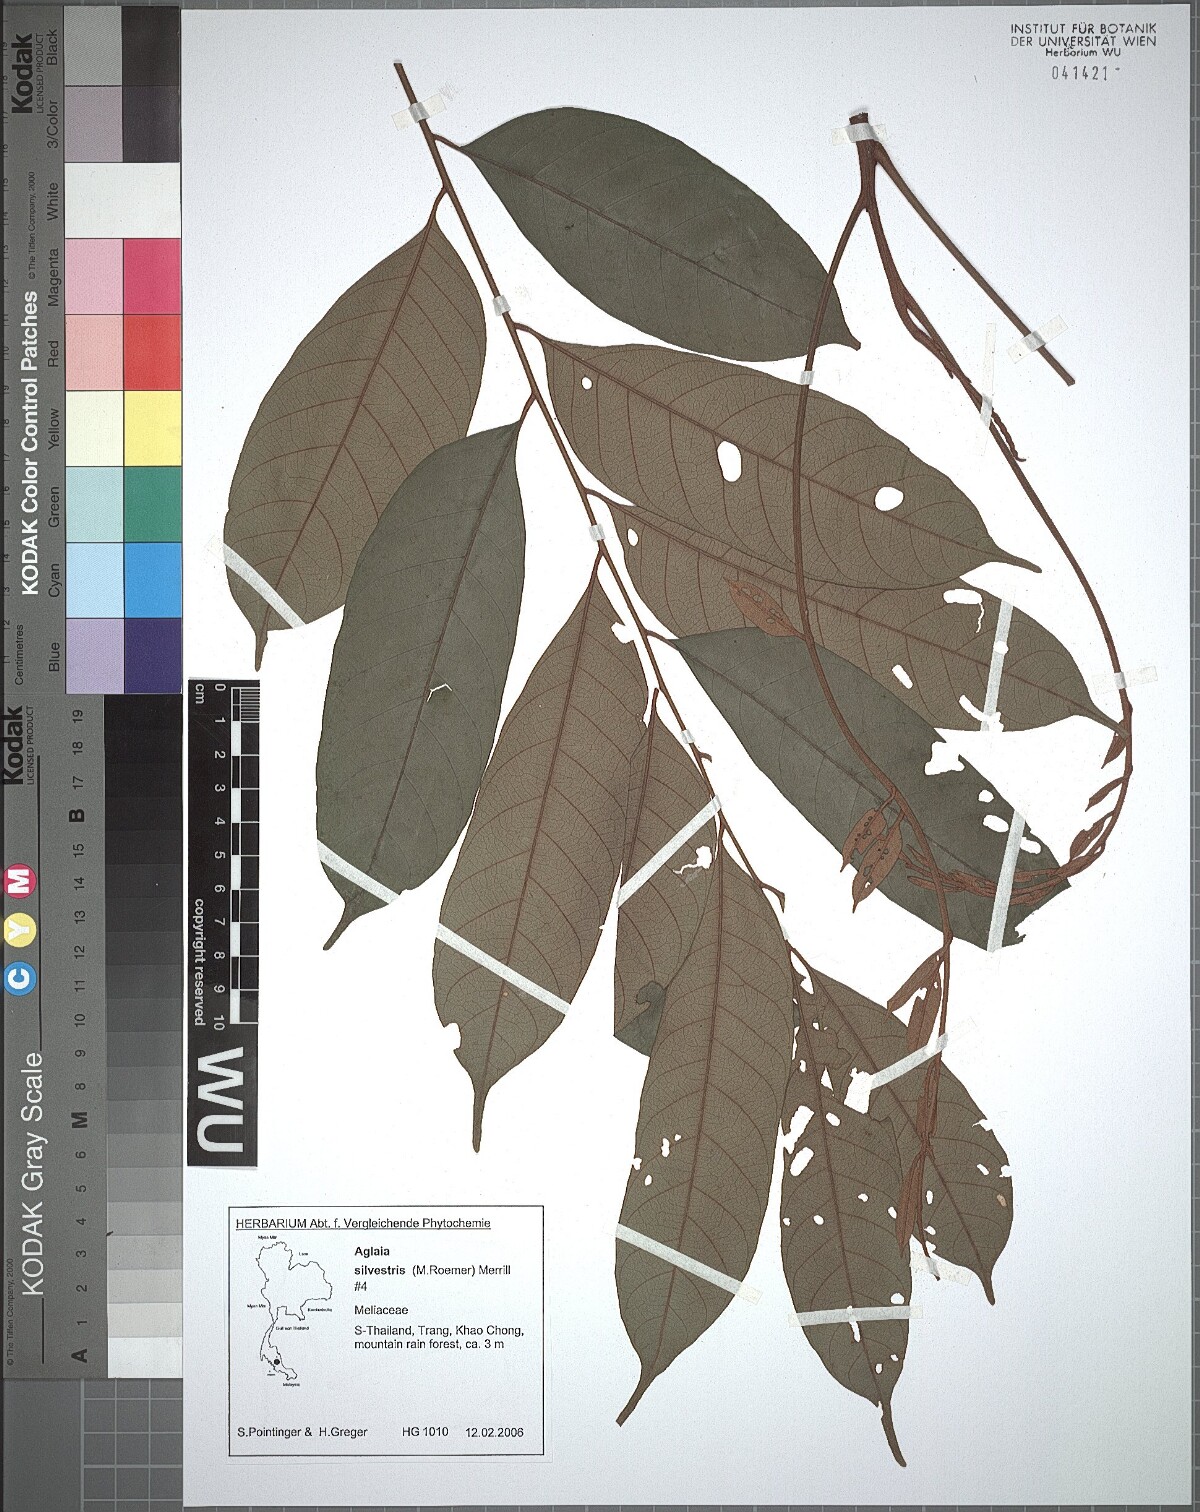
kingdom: Plantae
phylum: Tracheophyta
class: Magnoliopsida
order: Sapindales
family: Meliaceae
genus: Aglaia
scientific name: Aglaia silvestris
